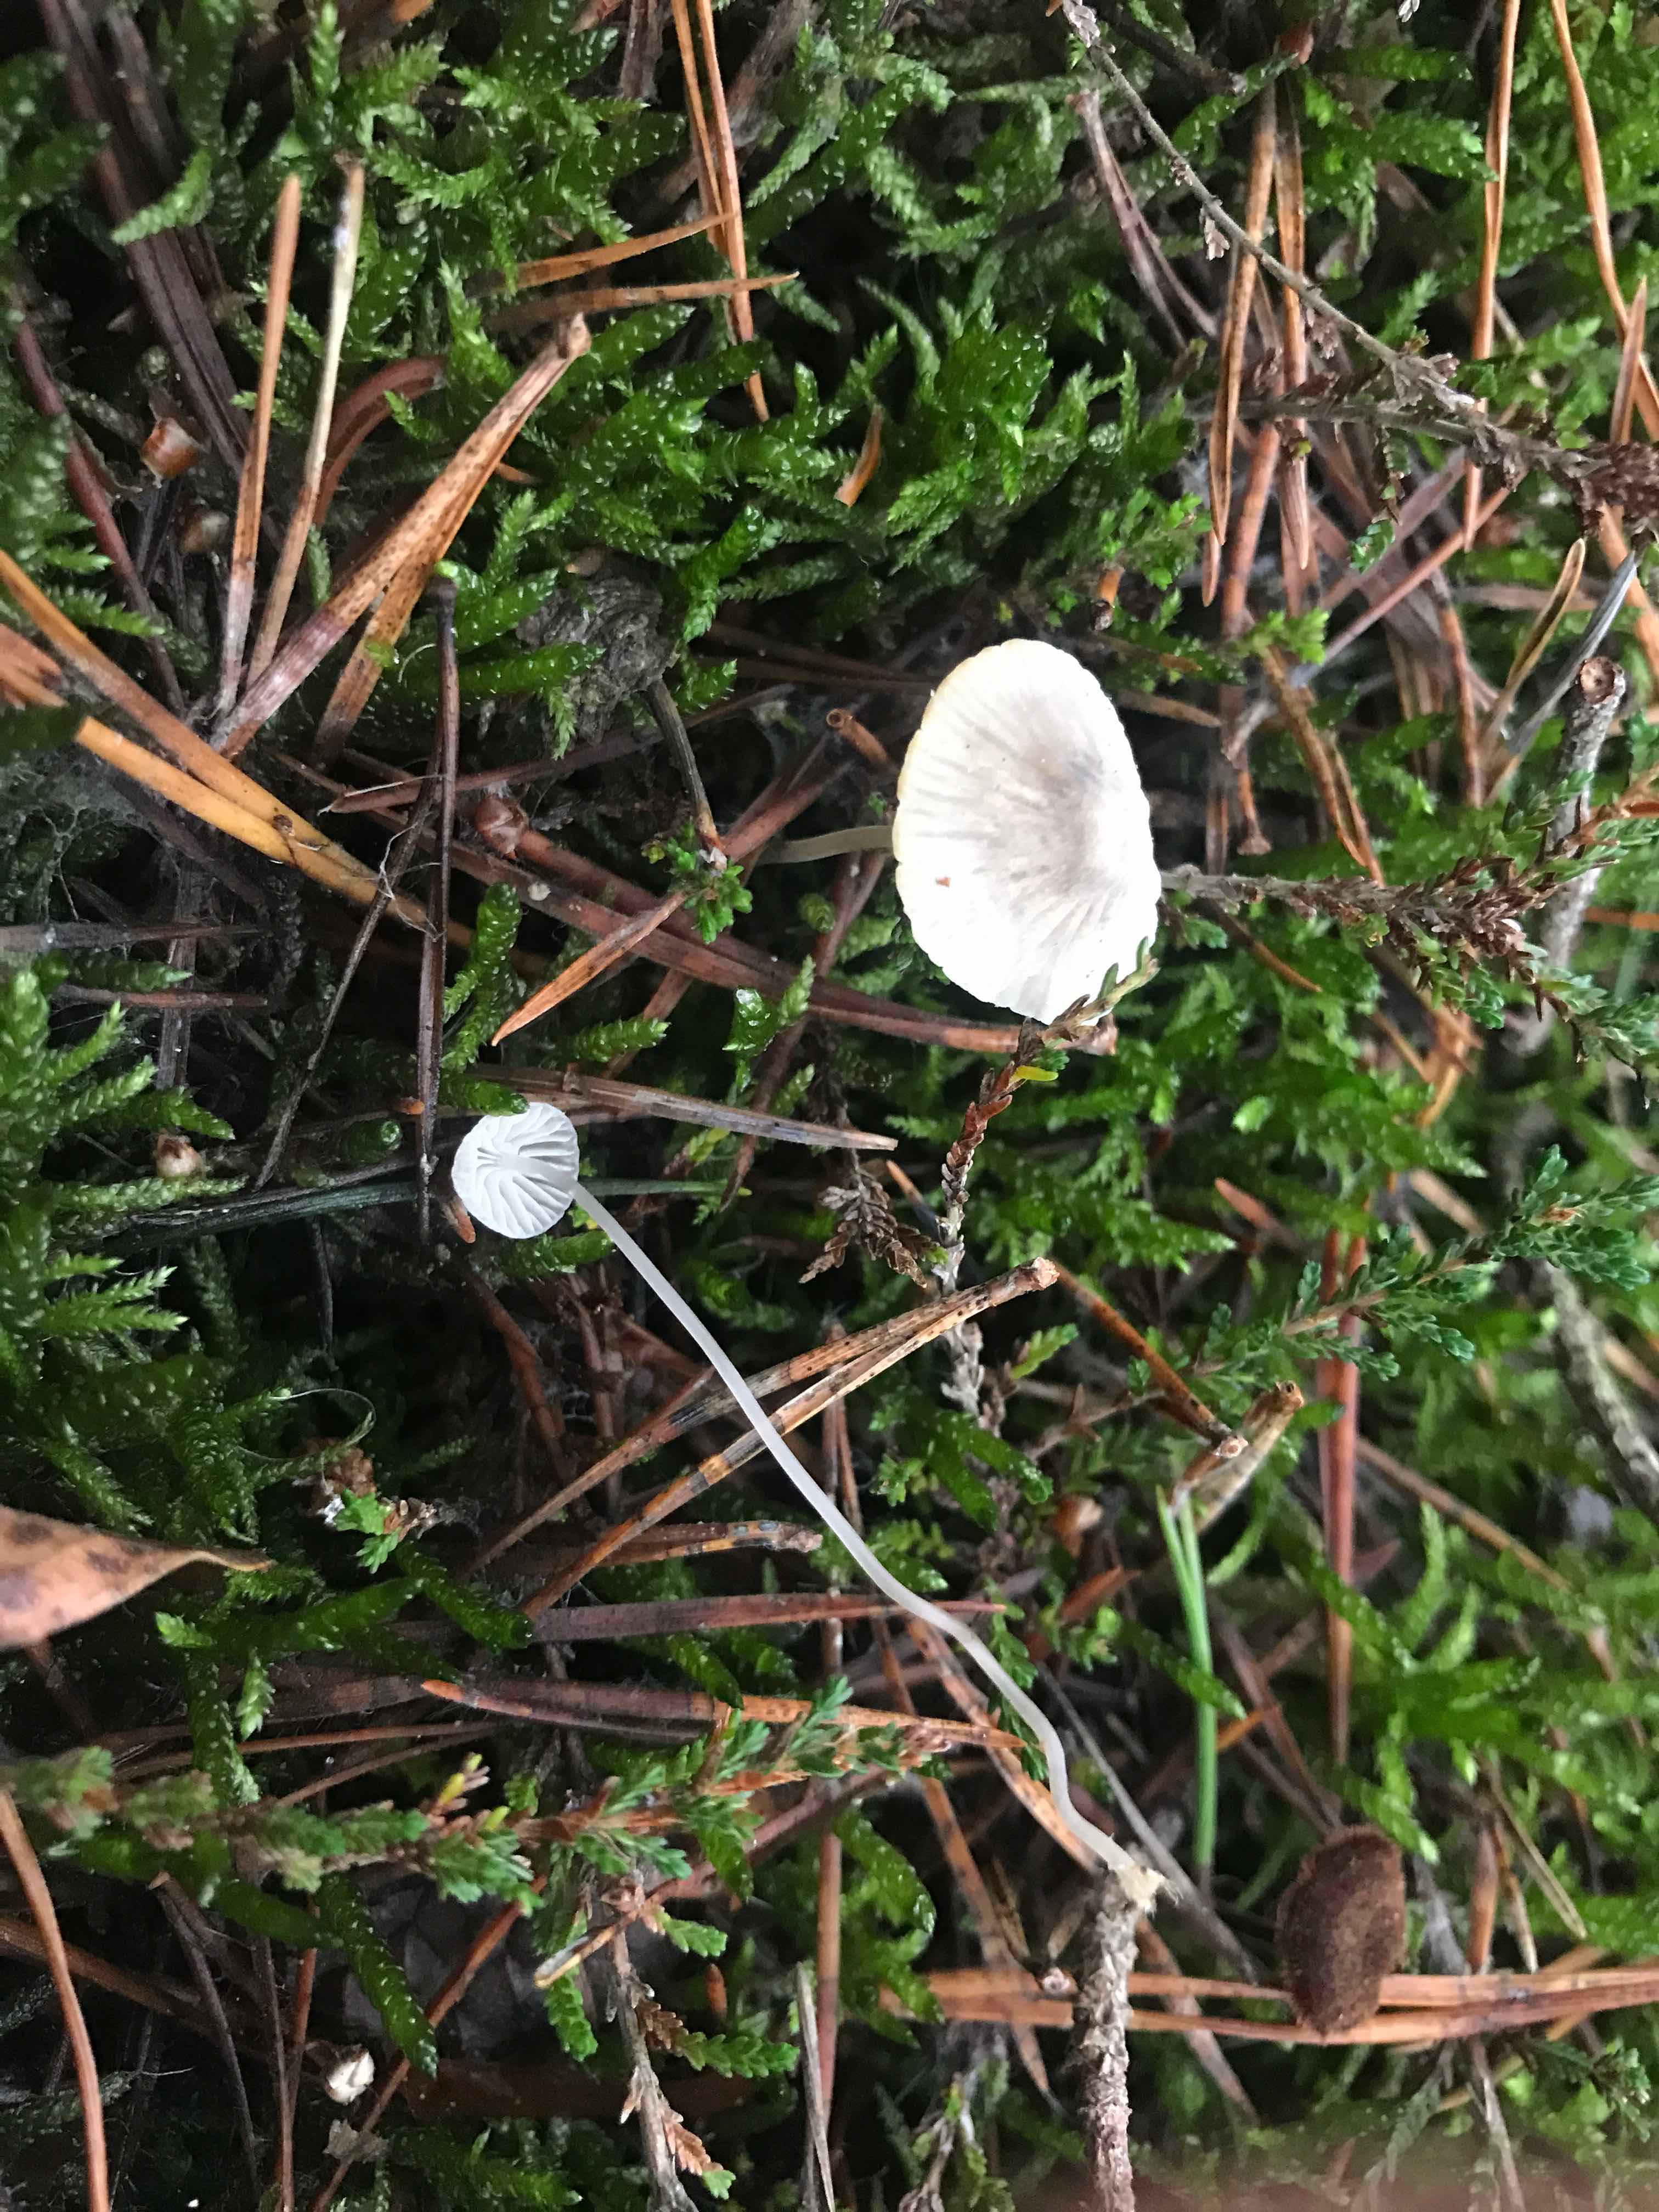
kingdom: Fungi
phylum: Basidiomycota
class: Agaricomycetes
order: Agaricales
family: Mycenaceae
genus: Mycena
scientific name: Mycena cinerella
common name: mel-huesvamp
